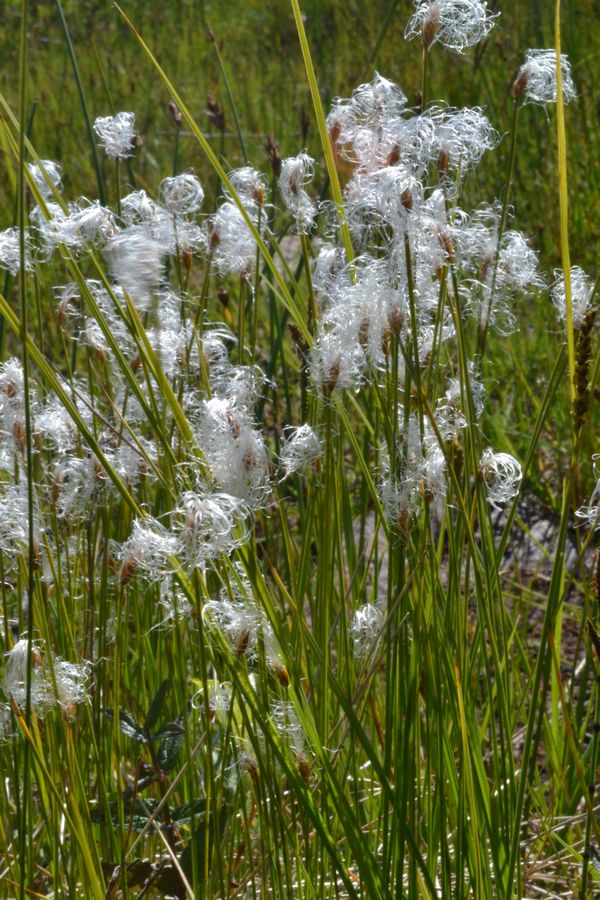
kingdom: Plantae
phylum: Tracheophyta
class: Liliopsida
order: Poales
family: Cyperaceae
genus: Trichophorum
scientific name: Trichophorum alpinum
